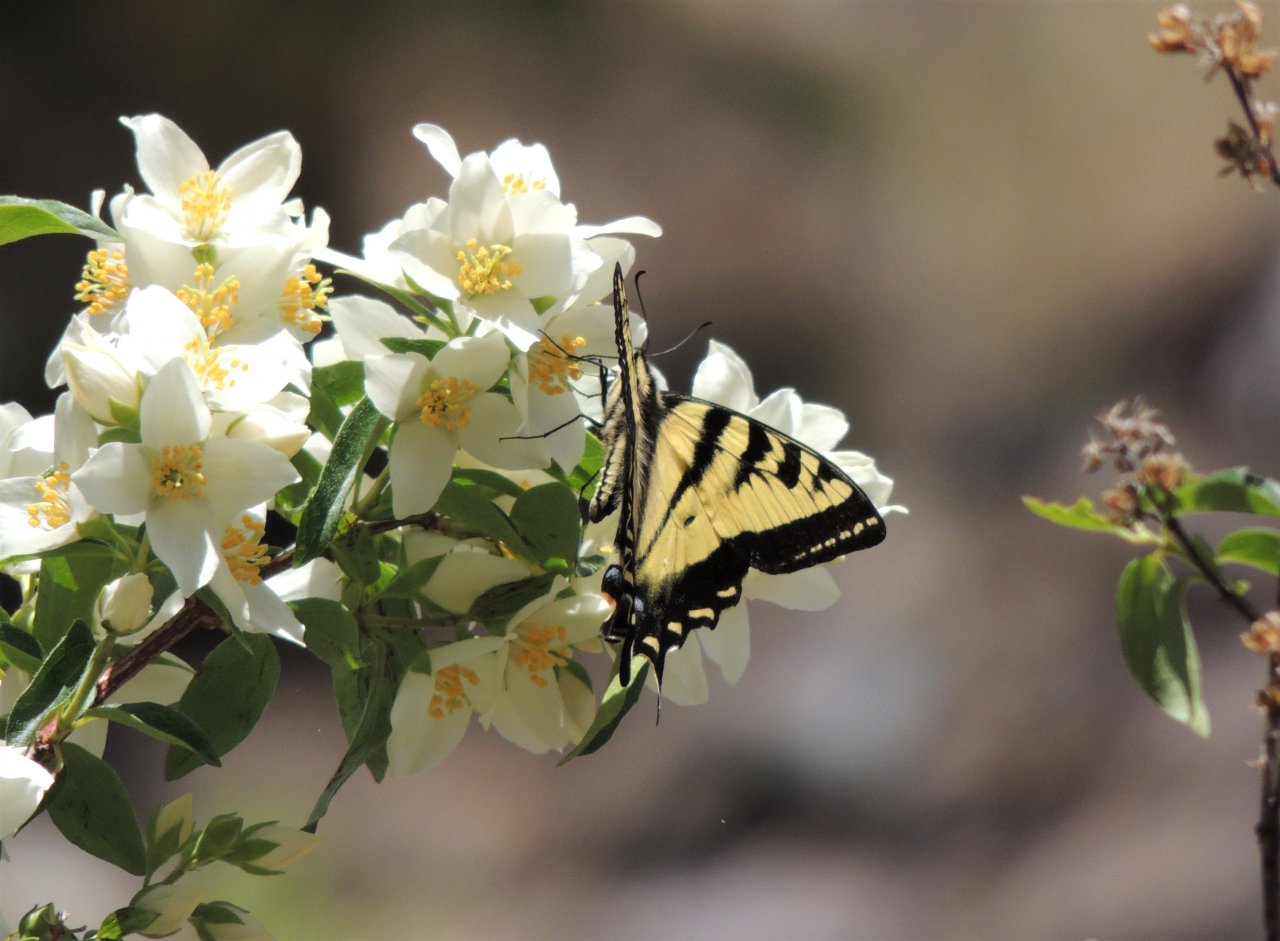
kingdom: Animalia
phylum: Arthropoda
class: Insecta
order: Lepidoptera
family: Papilionidae
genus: Pterourus
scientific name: Pterourus rutulus
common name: Western Tiger Swallowtail
